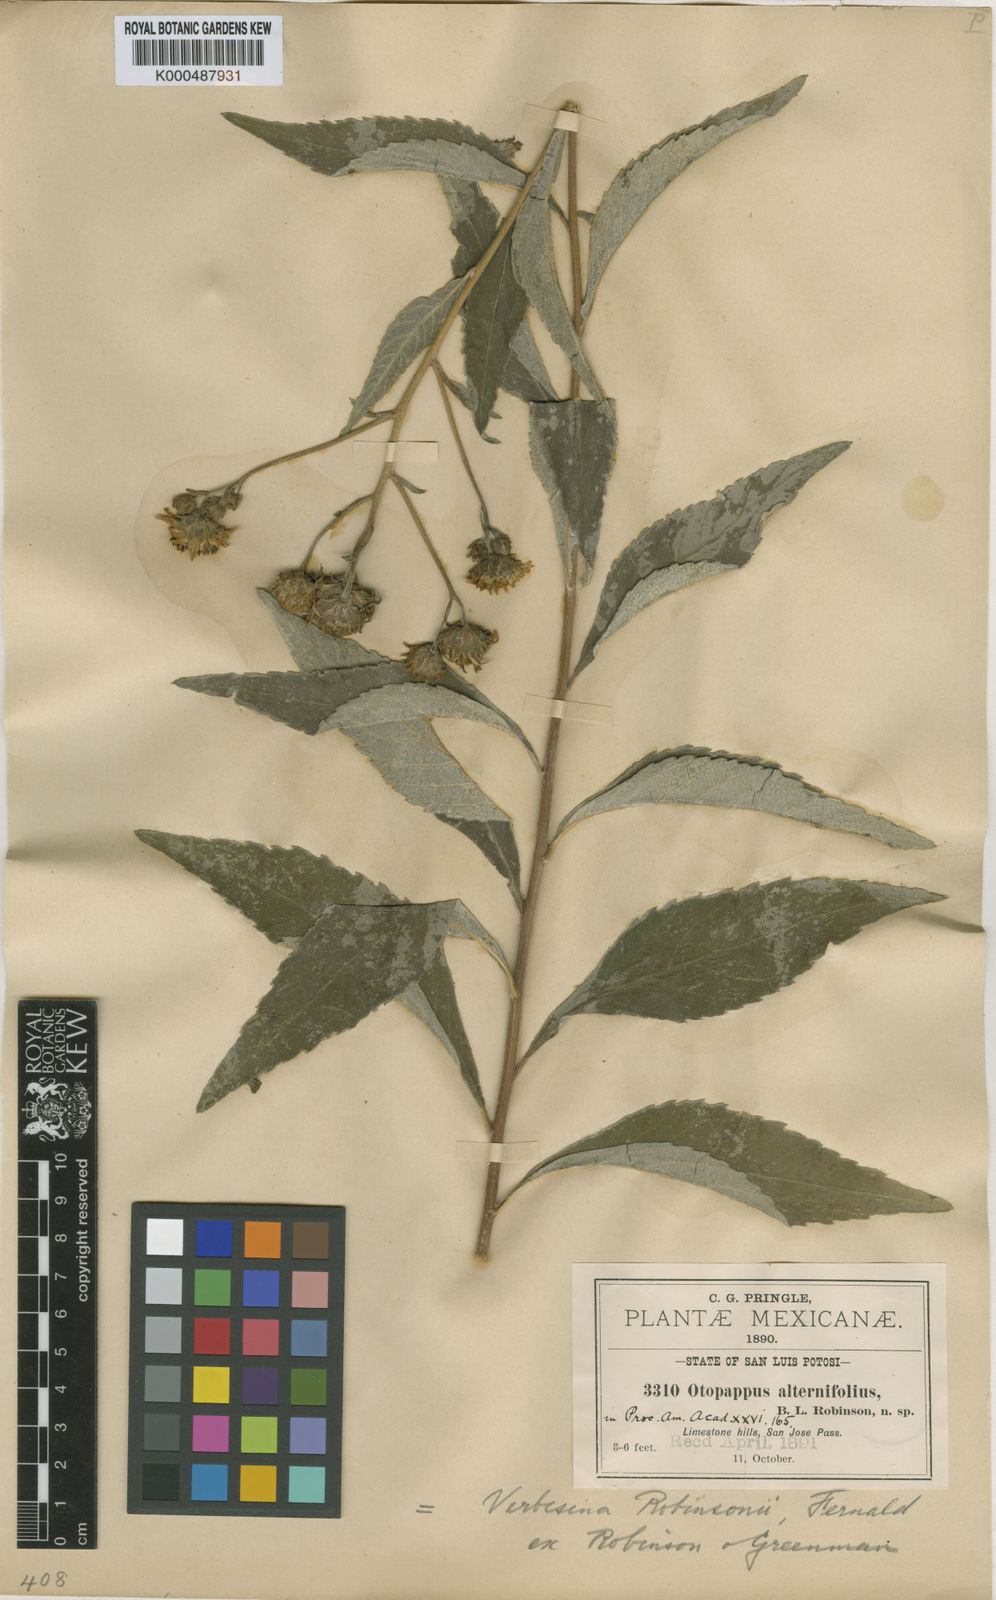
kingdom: Plantae
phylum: Tracheophyta
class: Magnoliopsida
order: Asterales
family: Asteraceae
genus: Verbesina
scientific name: Verbesina
